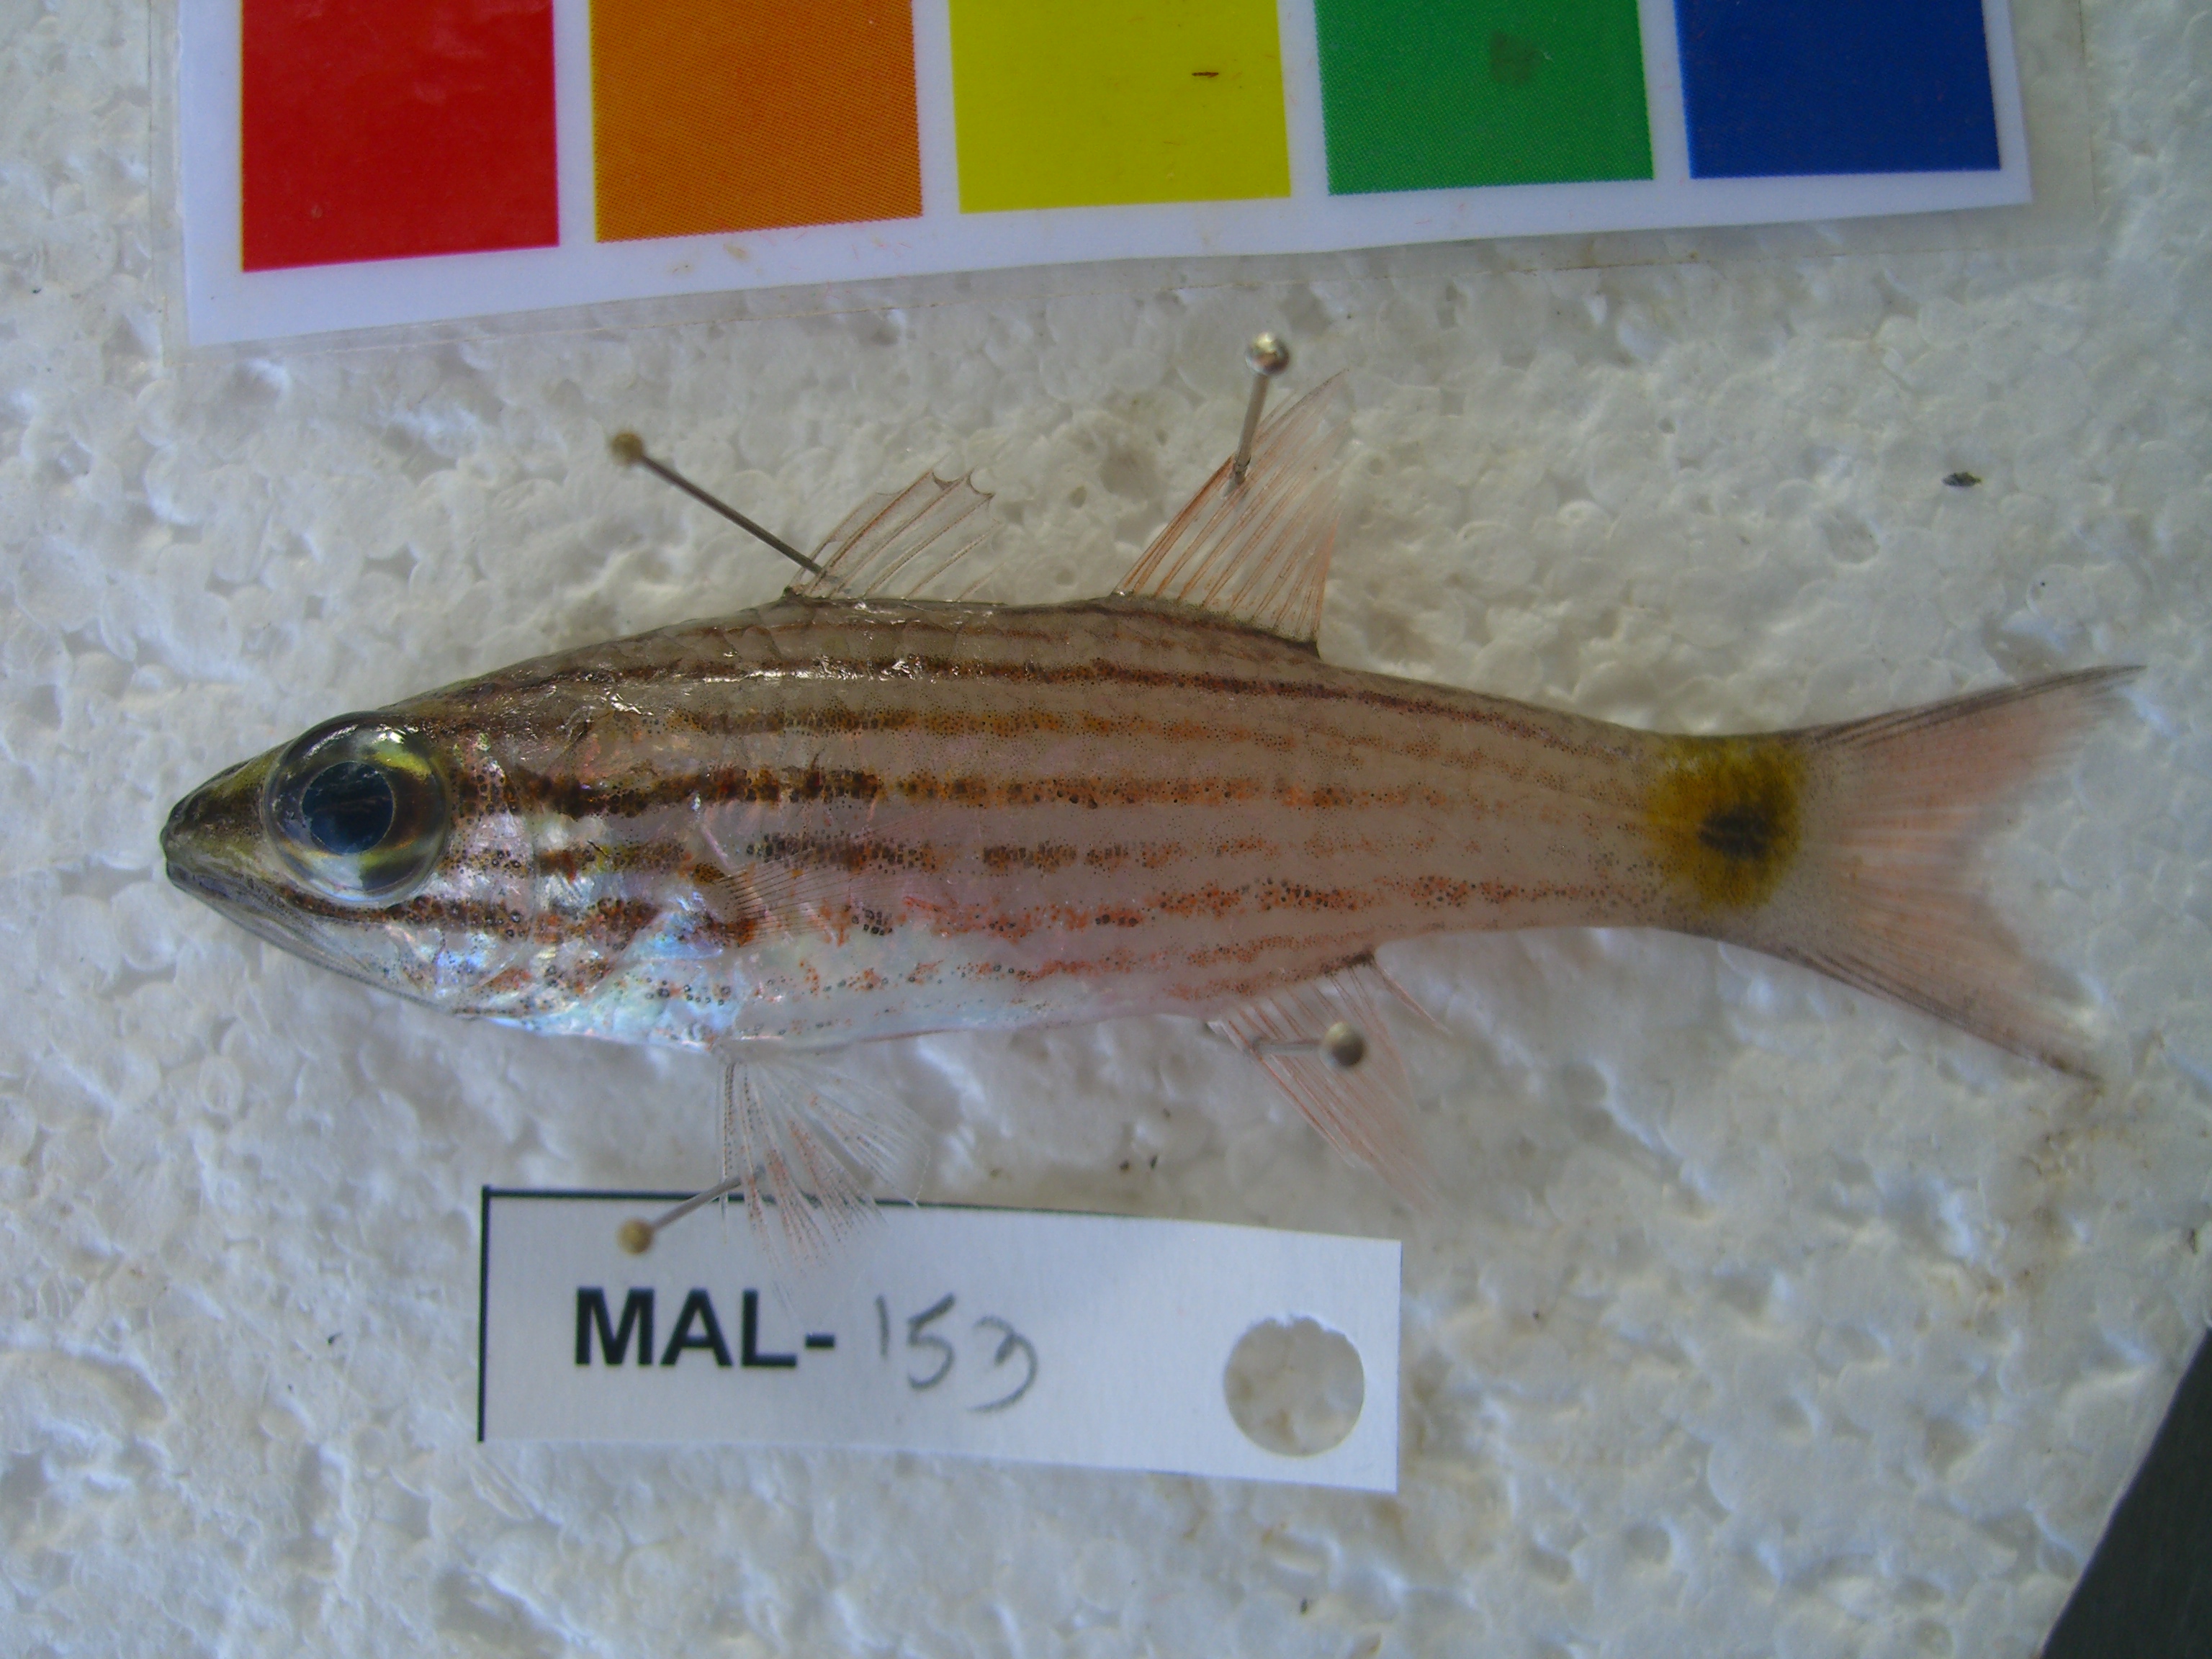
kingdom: Animalia
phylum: Chordata
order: Perciformes
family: Apogonidae
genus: Cheilodipterus
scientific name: Cheilodipterus artus
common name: Wolf cardinal
